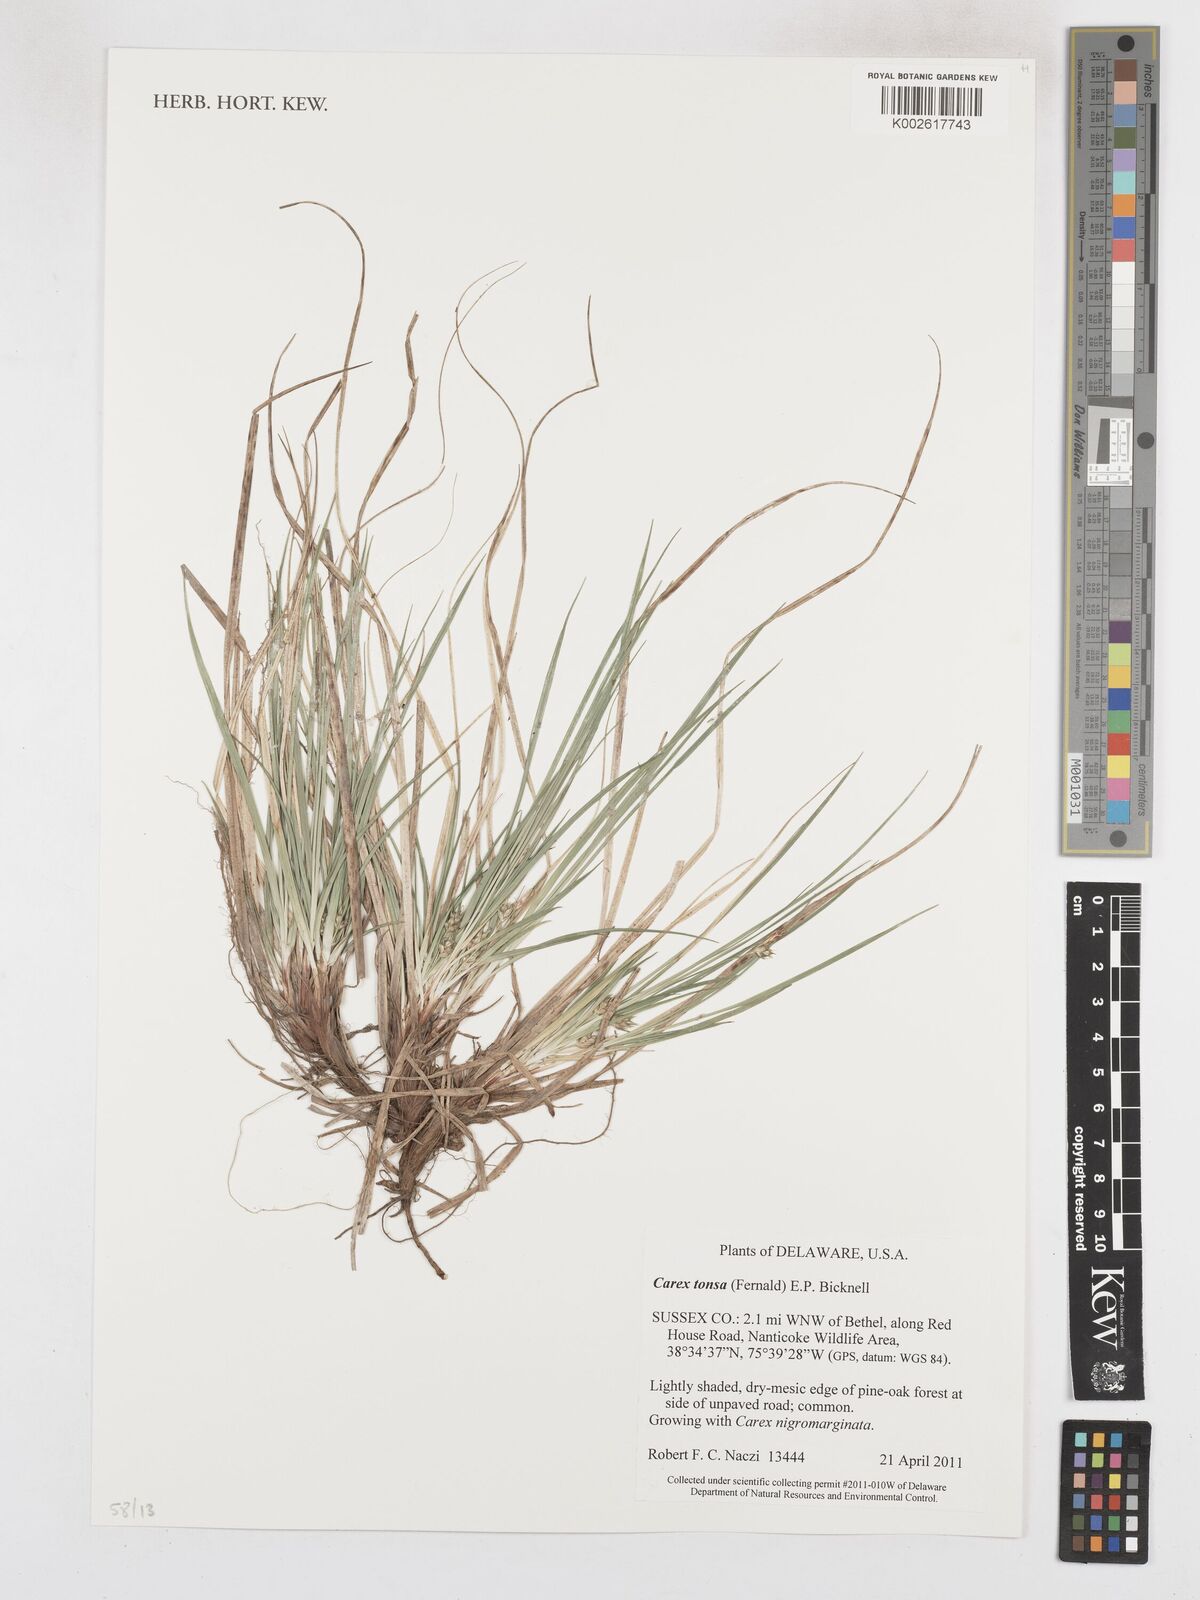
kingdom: Plantae
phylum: Tracheophyta
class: Liliopsida
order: Poales
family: Cyperaceae
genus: Carex
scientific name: Carex tonsa
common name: Bald sedge
